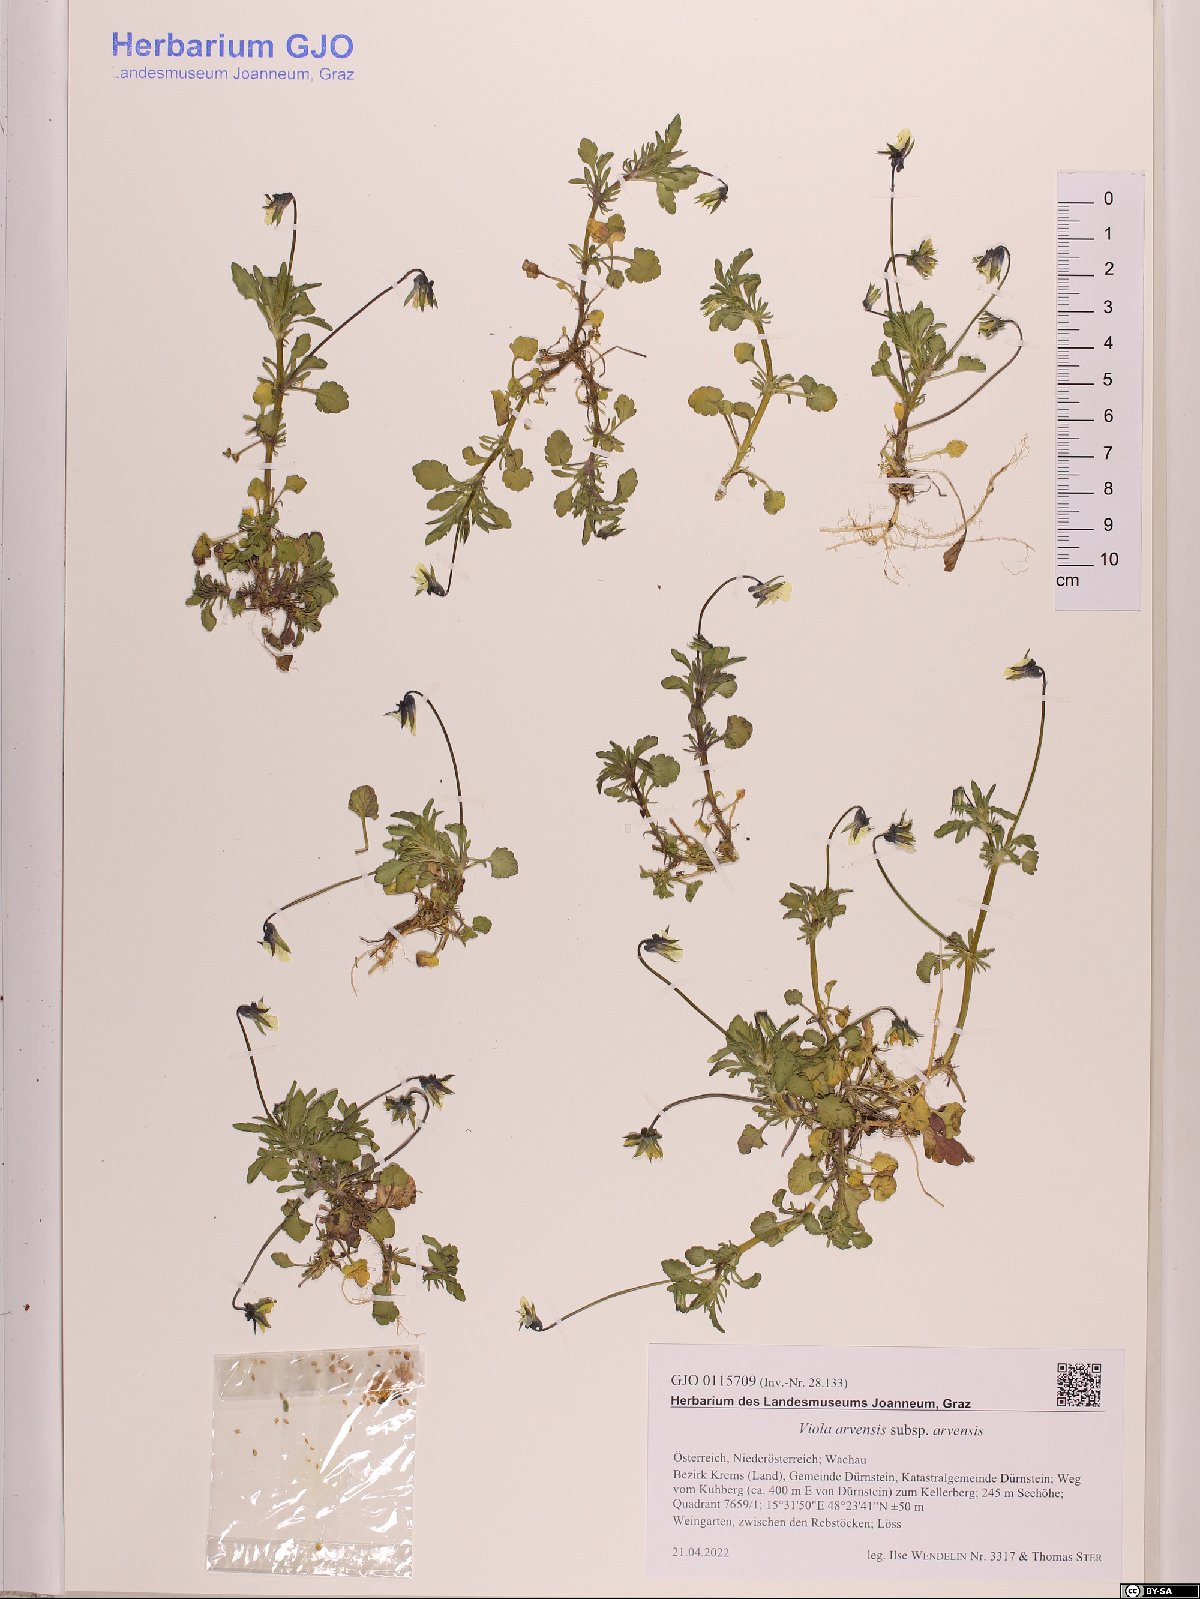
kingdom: Plantae
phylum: Tracheophyta
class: Magnoliopsida
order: Malpighiales
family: Violaceae
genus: Viola
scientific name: Viola arvensis
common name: Field pansy
